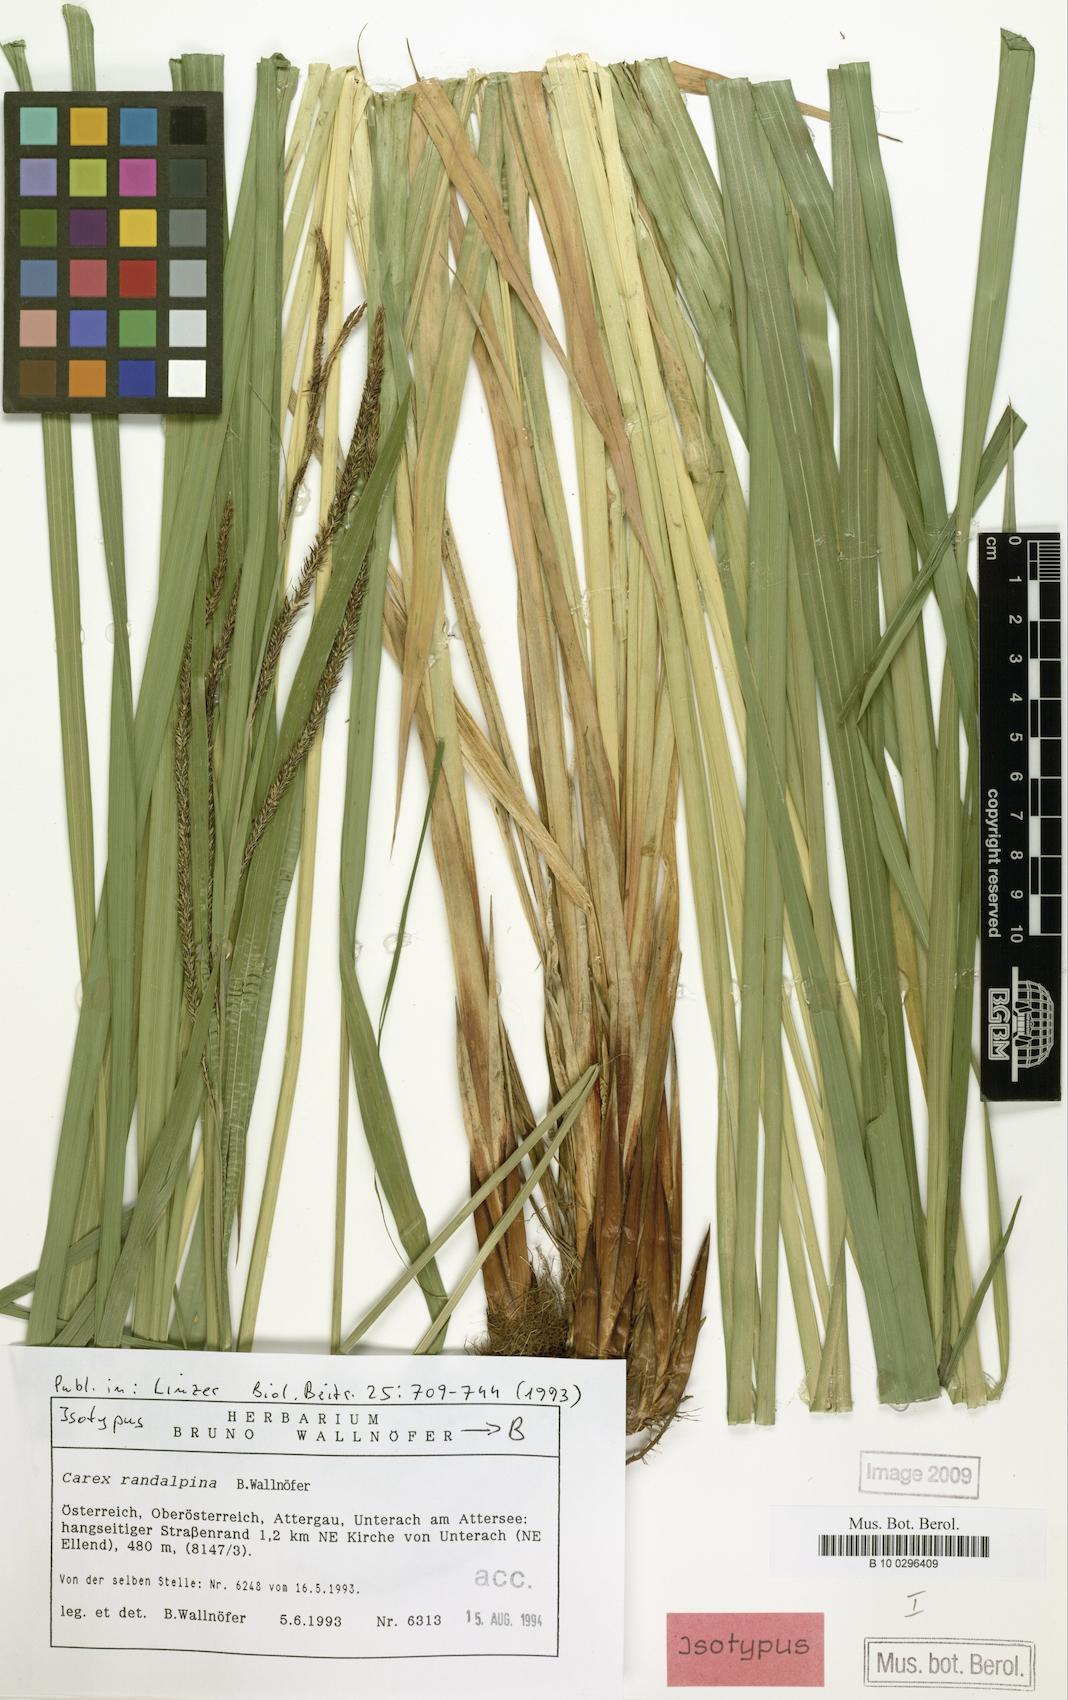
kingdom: Plantae
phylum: Tracheophyta
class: Liliopsida
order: Poales
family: Cyperaceae
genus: Carex
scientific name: Carex randalpina
